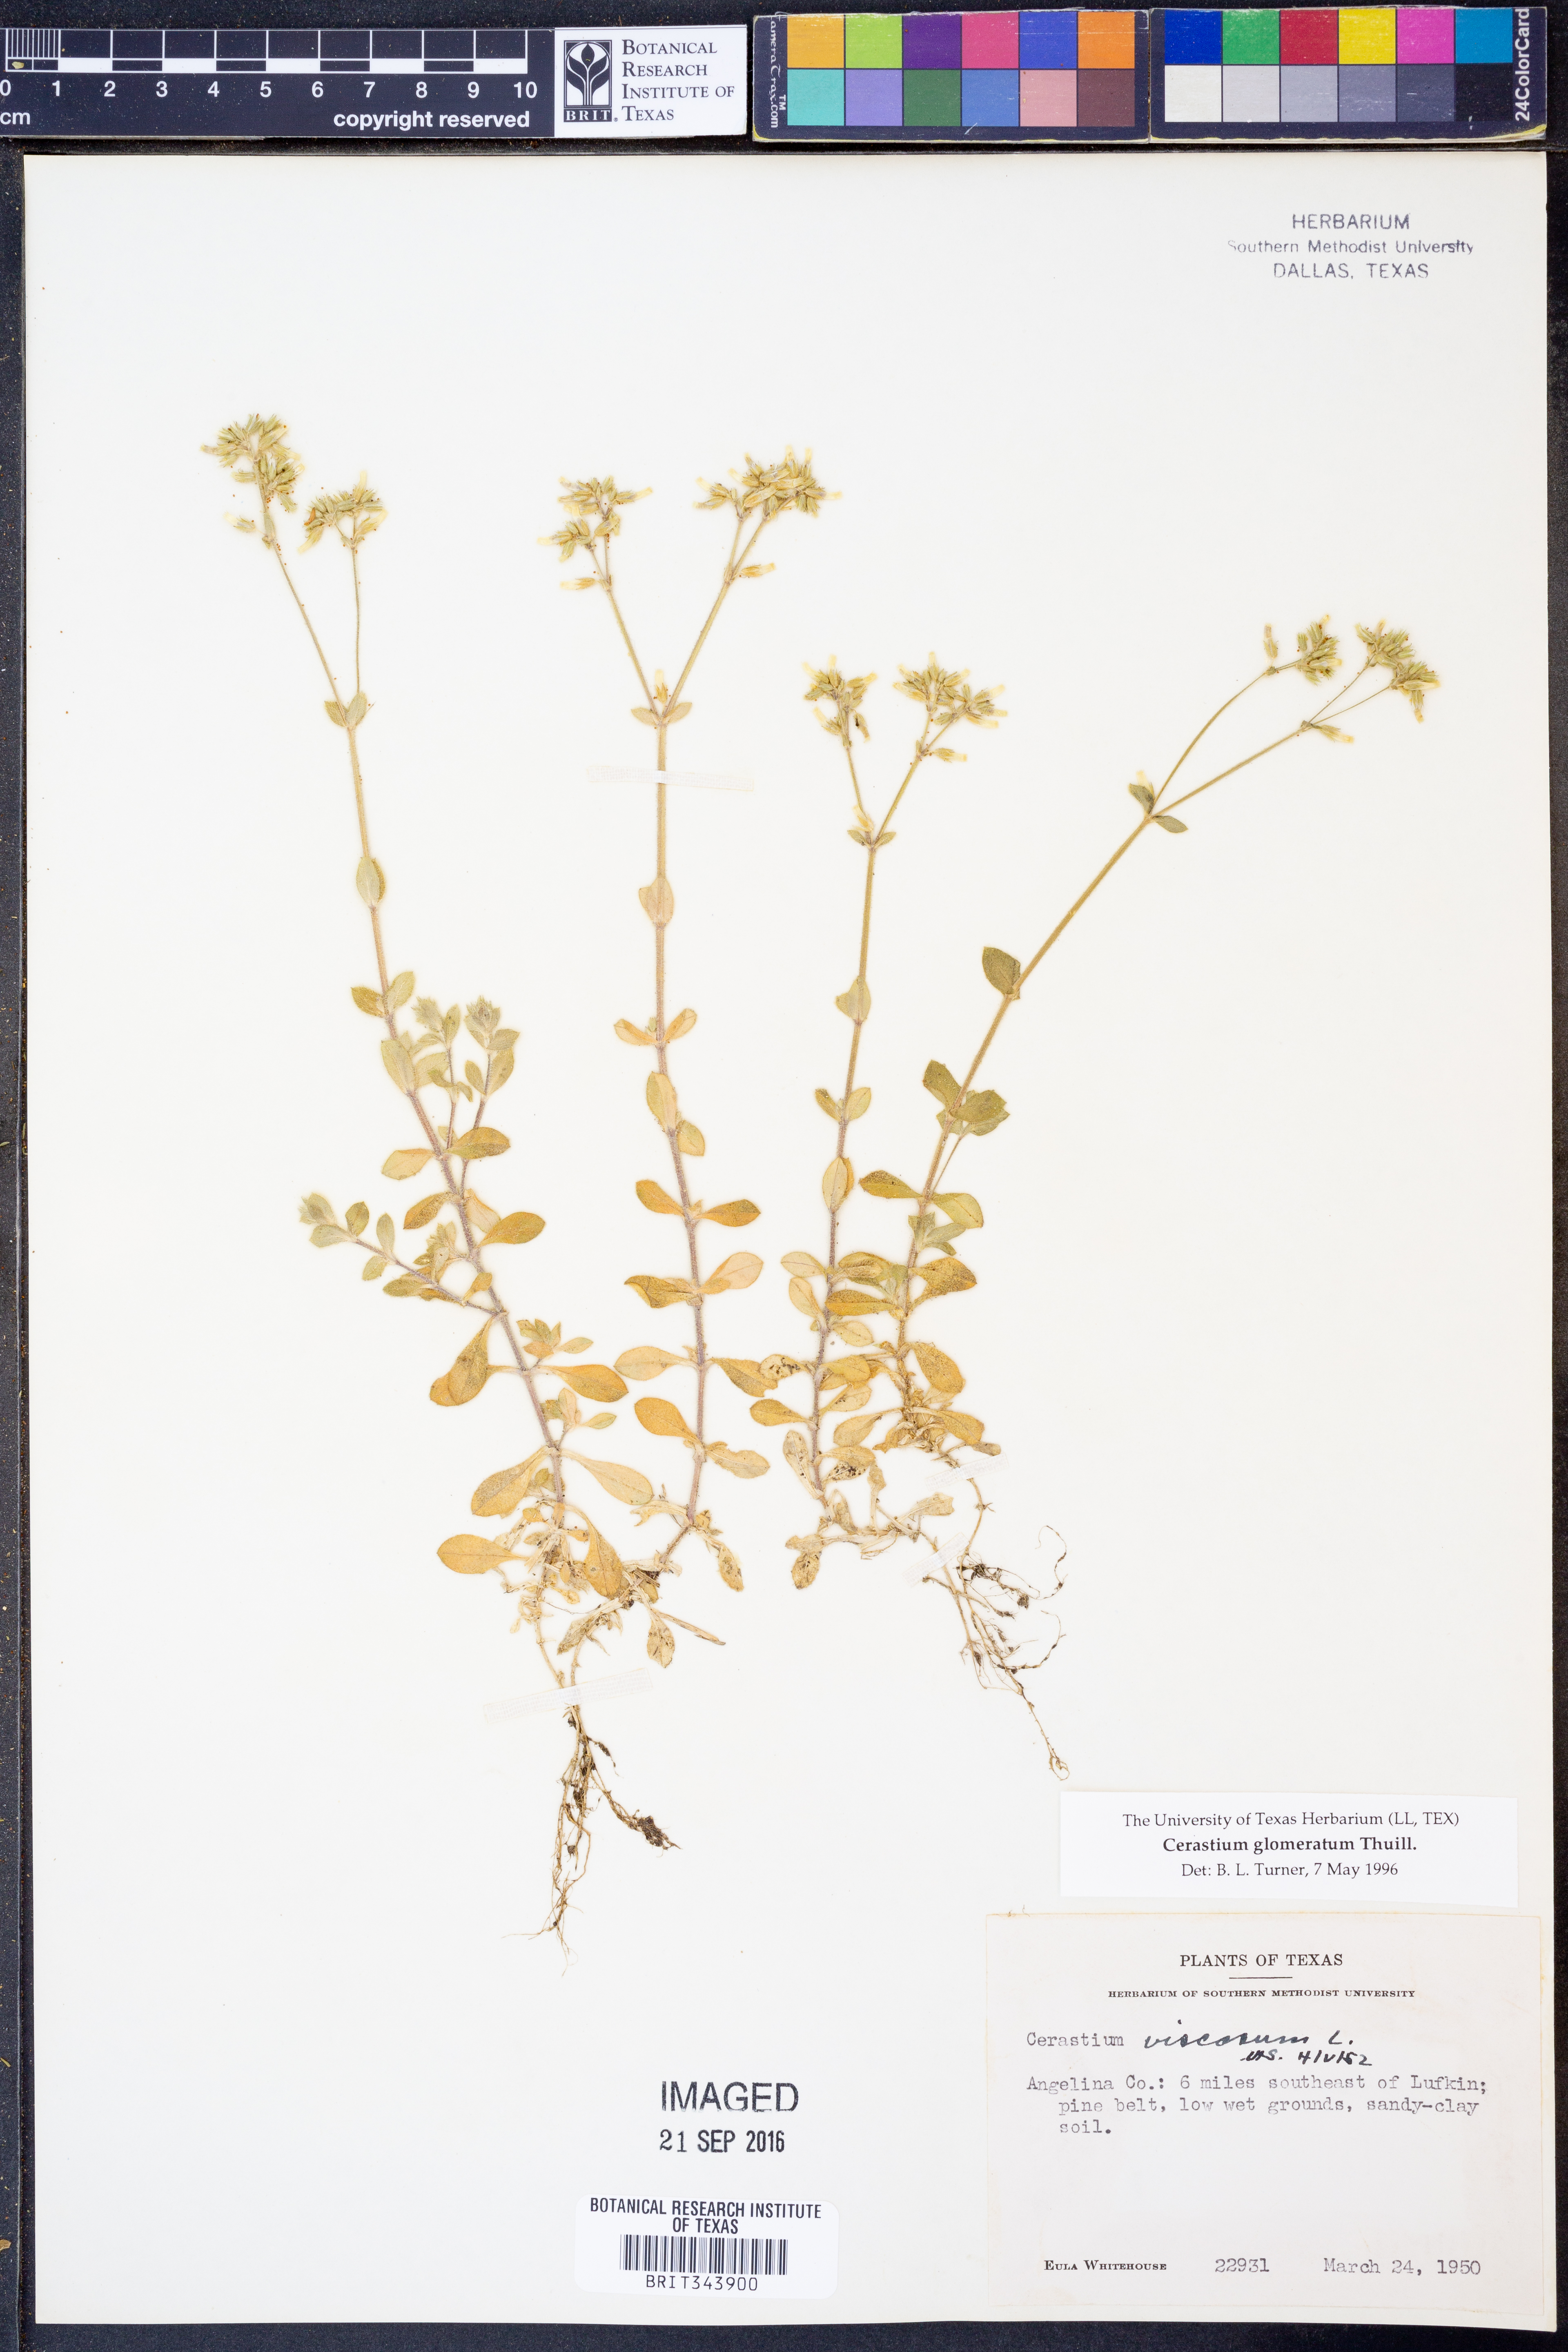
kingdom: Plantae
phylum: Tracheophyta
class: Magnoliopsida
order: Caryophyllales
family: Caryophyllaceae
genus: Cerastium
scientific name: Cerastium glomeratum
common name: Sticky chickweed
